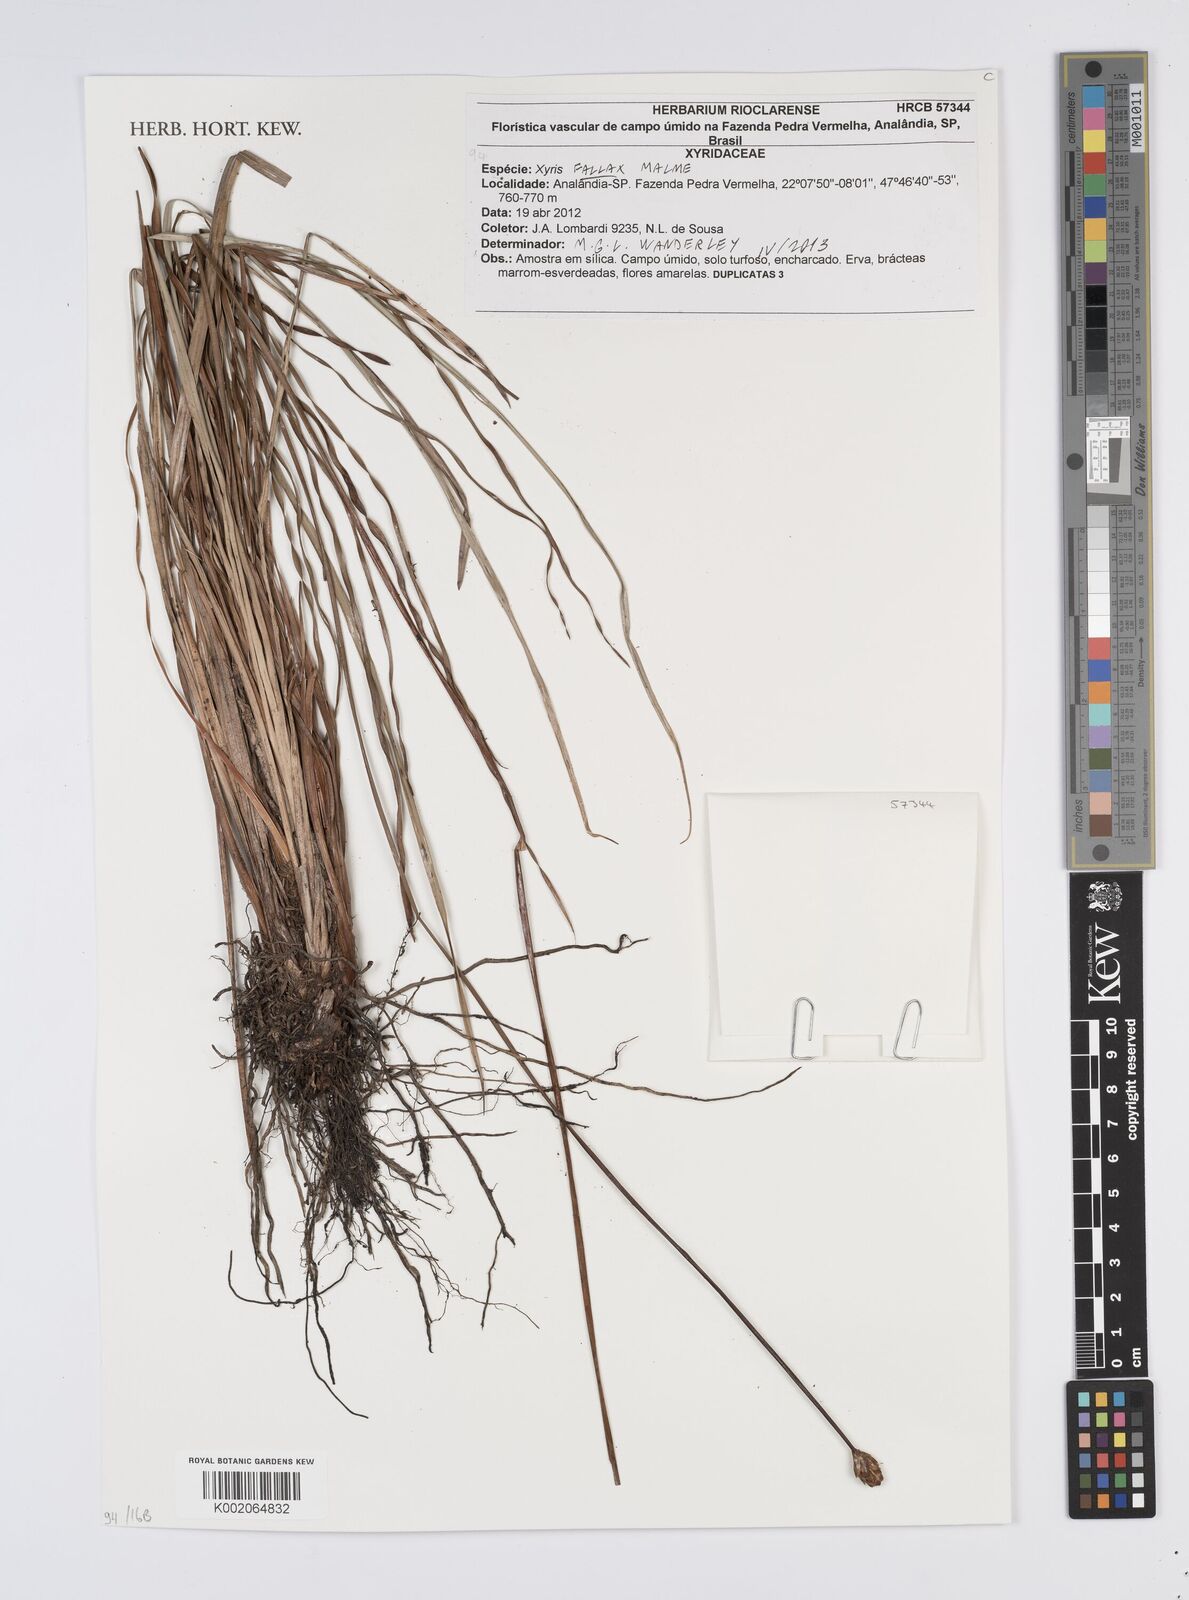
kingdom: Plantae
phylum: Tracheophyta
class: Liliopsida
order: Poales
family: Xyridaceae
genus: Xyris
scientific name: Xyris fallax
